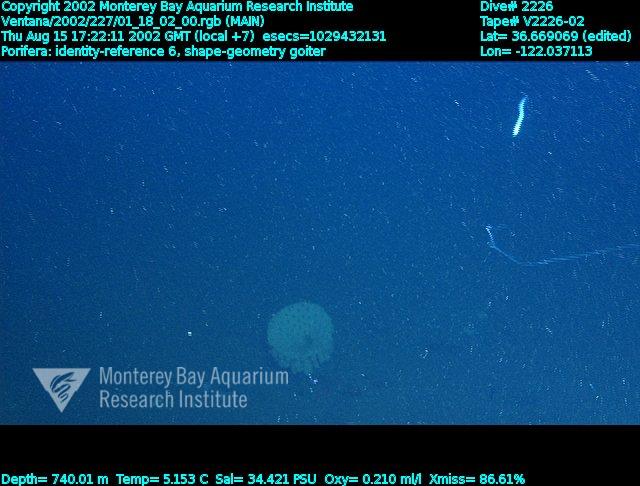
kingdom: Animalia
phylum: Porifera
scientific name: Porifera
